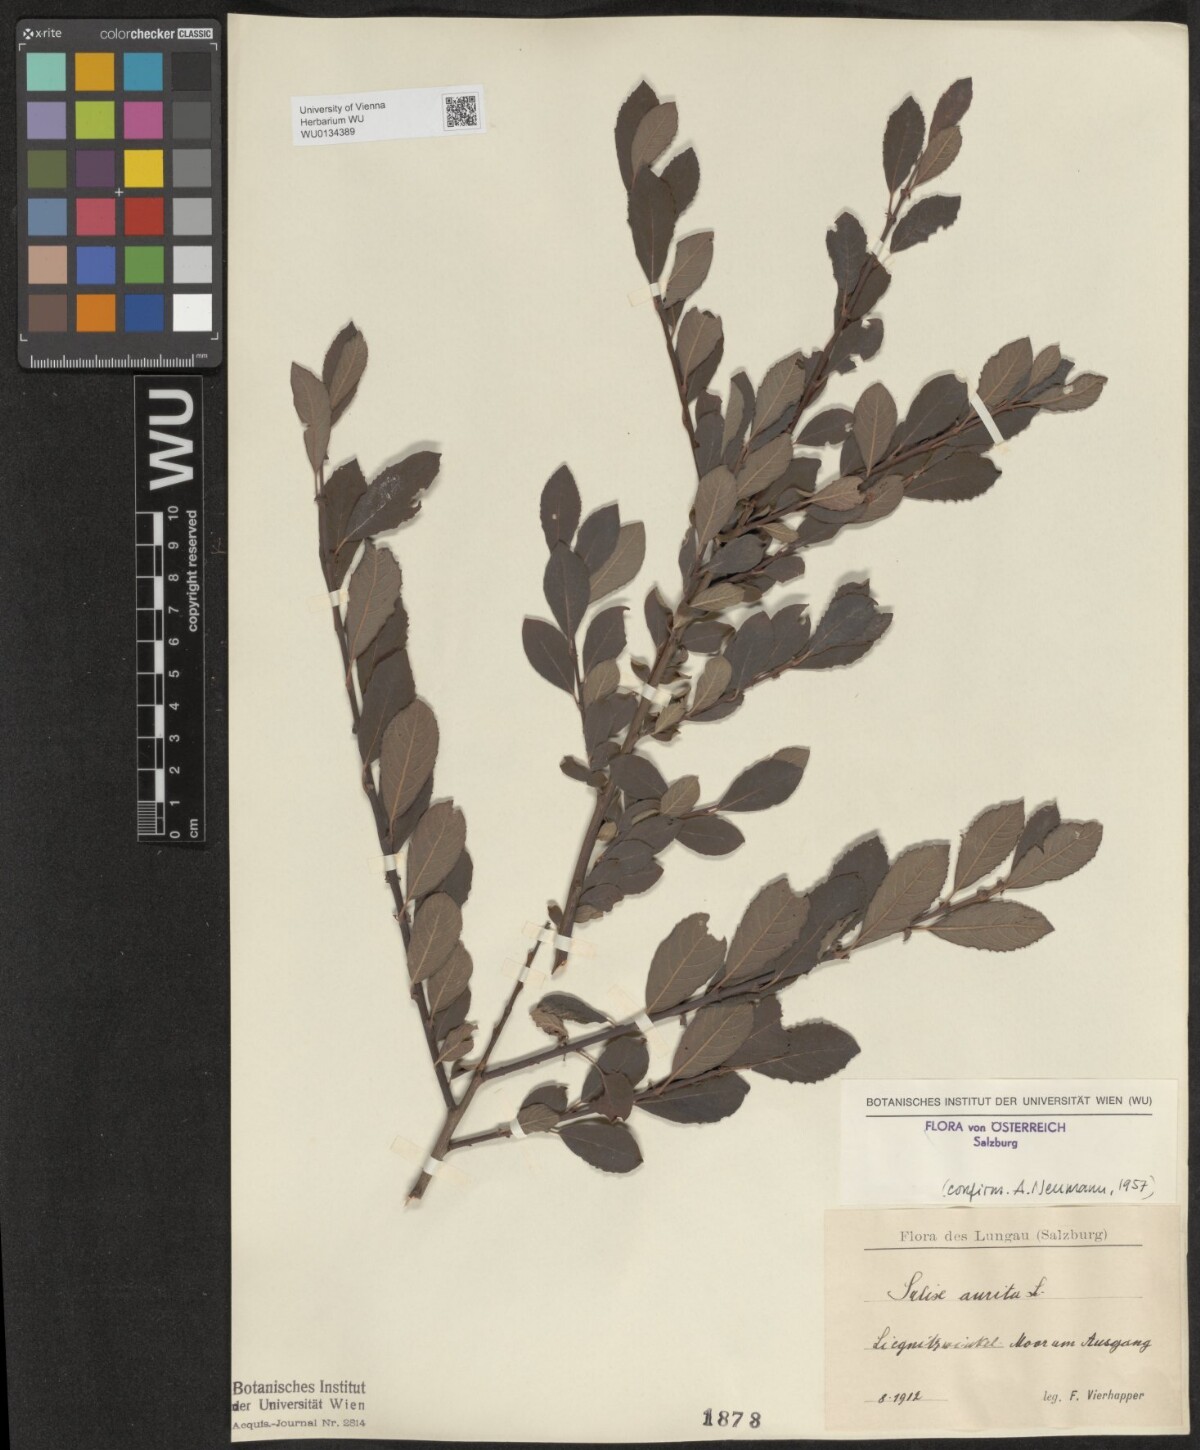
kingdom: Plantae
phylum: Tracheophyta
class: Magnoliopsida
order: Malpighiales
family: Salicaceae
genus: Salix
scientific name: Salix aurita
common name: Eared willow
